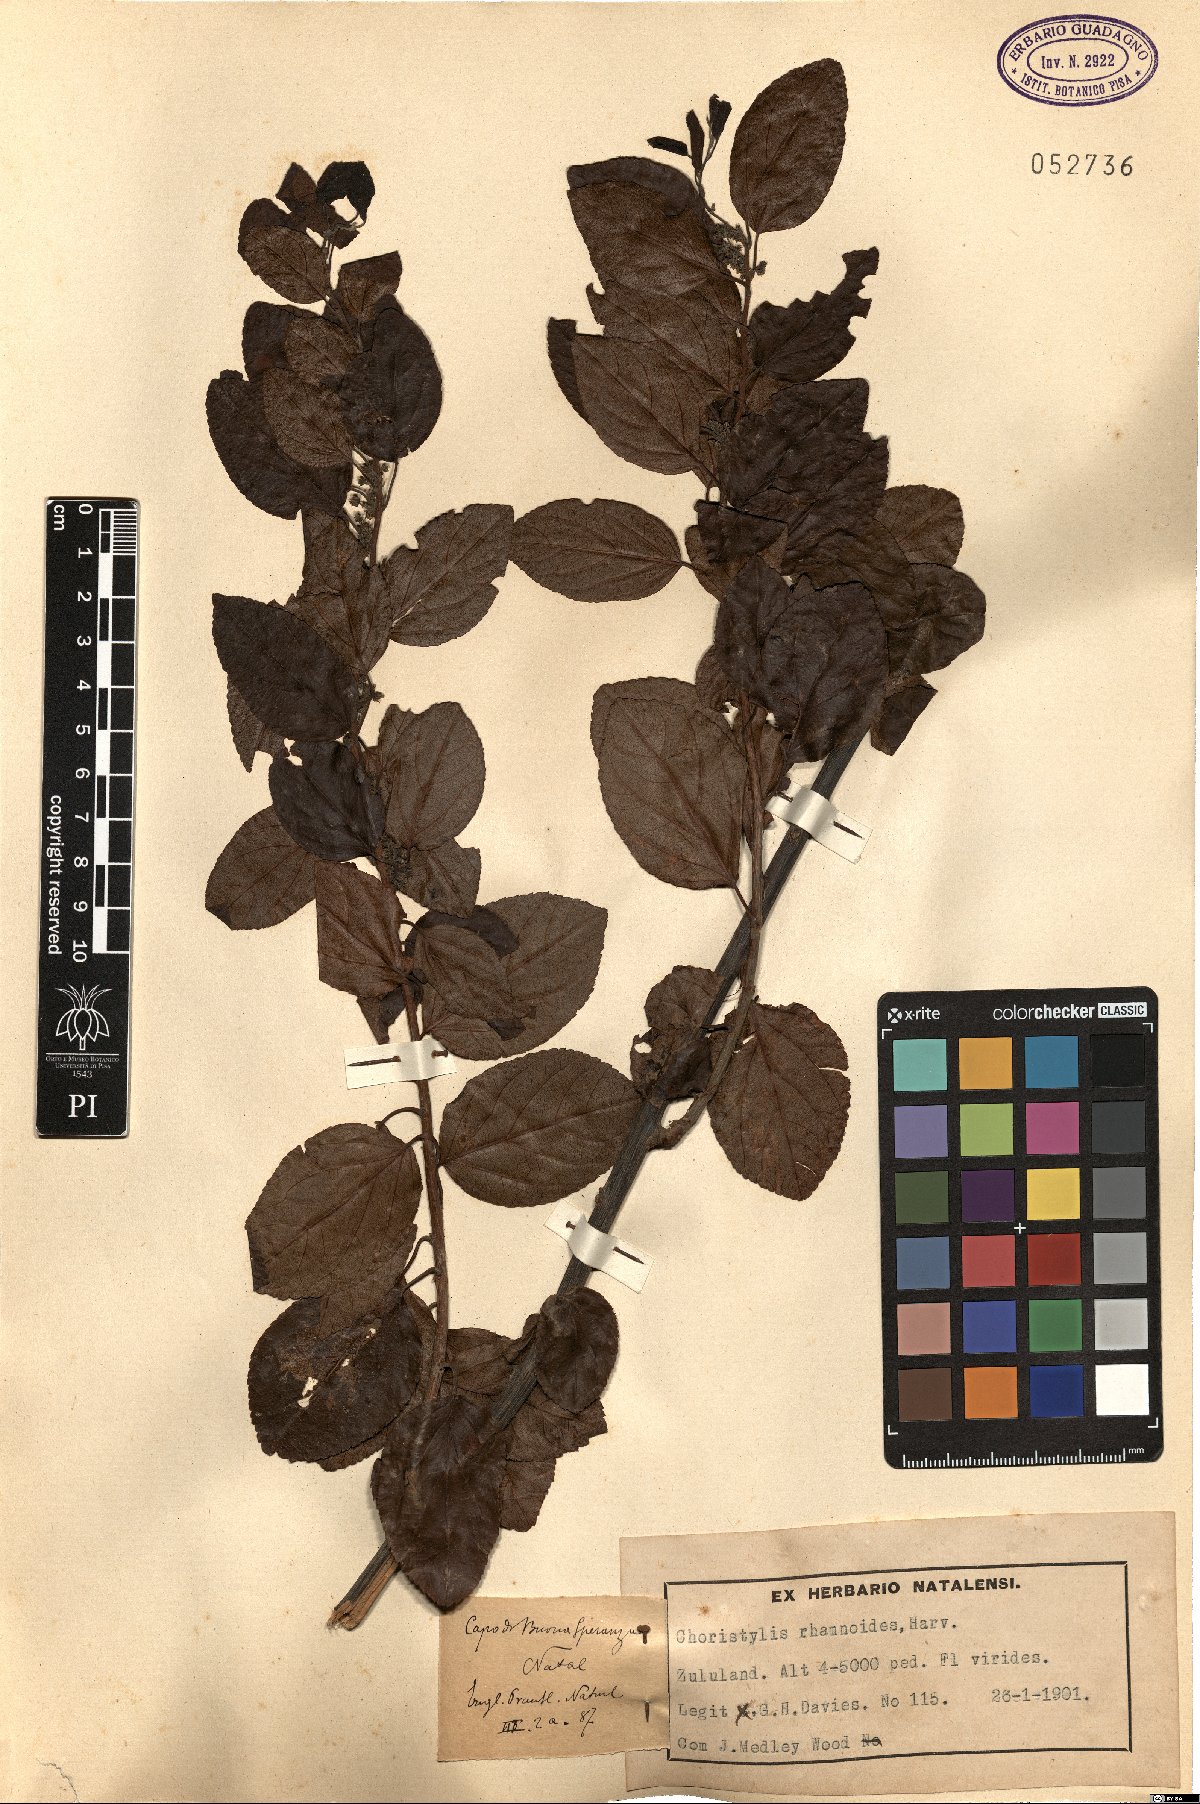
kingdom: Plantae
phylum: Tracheophyta
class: Magnoliopsida
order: Saxifragales
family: Iteaceae
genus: Itea
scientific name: Itea rhamnoides
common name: False dogwood
